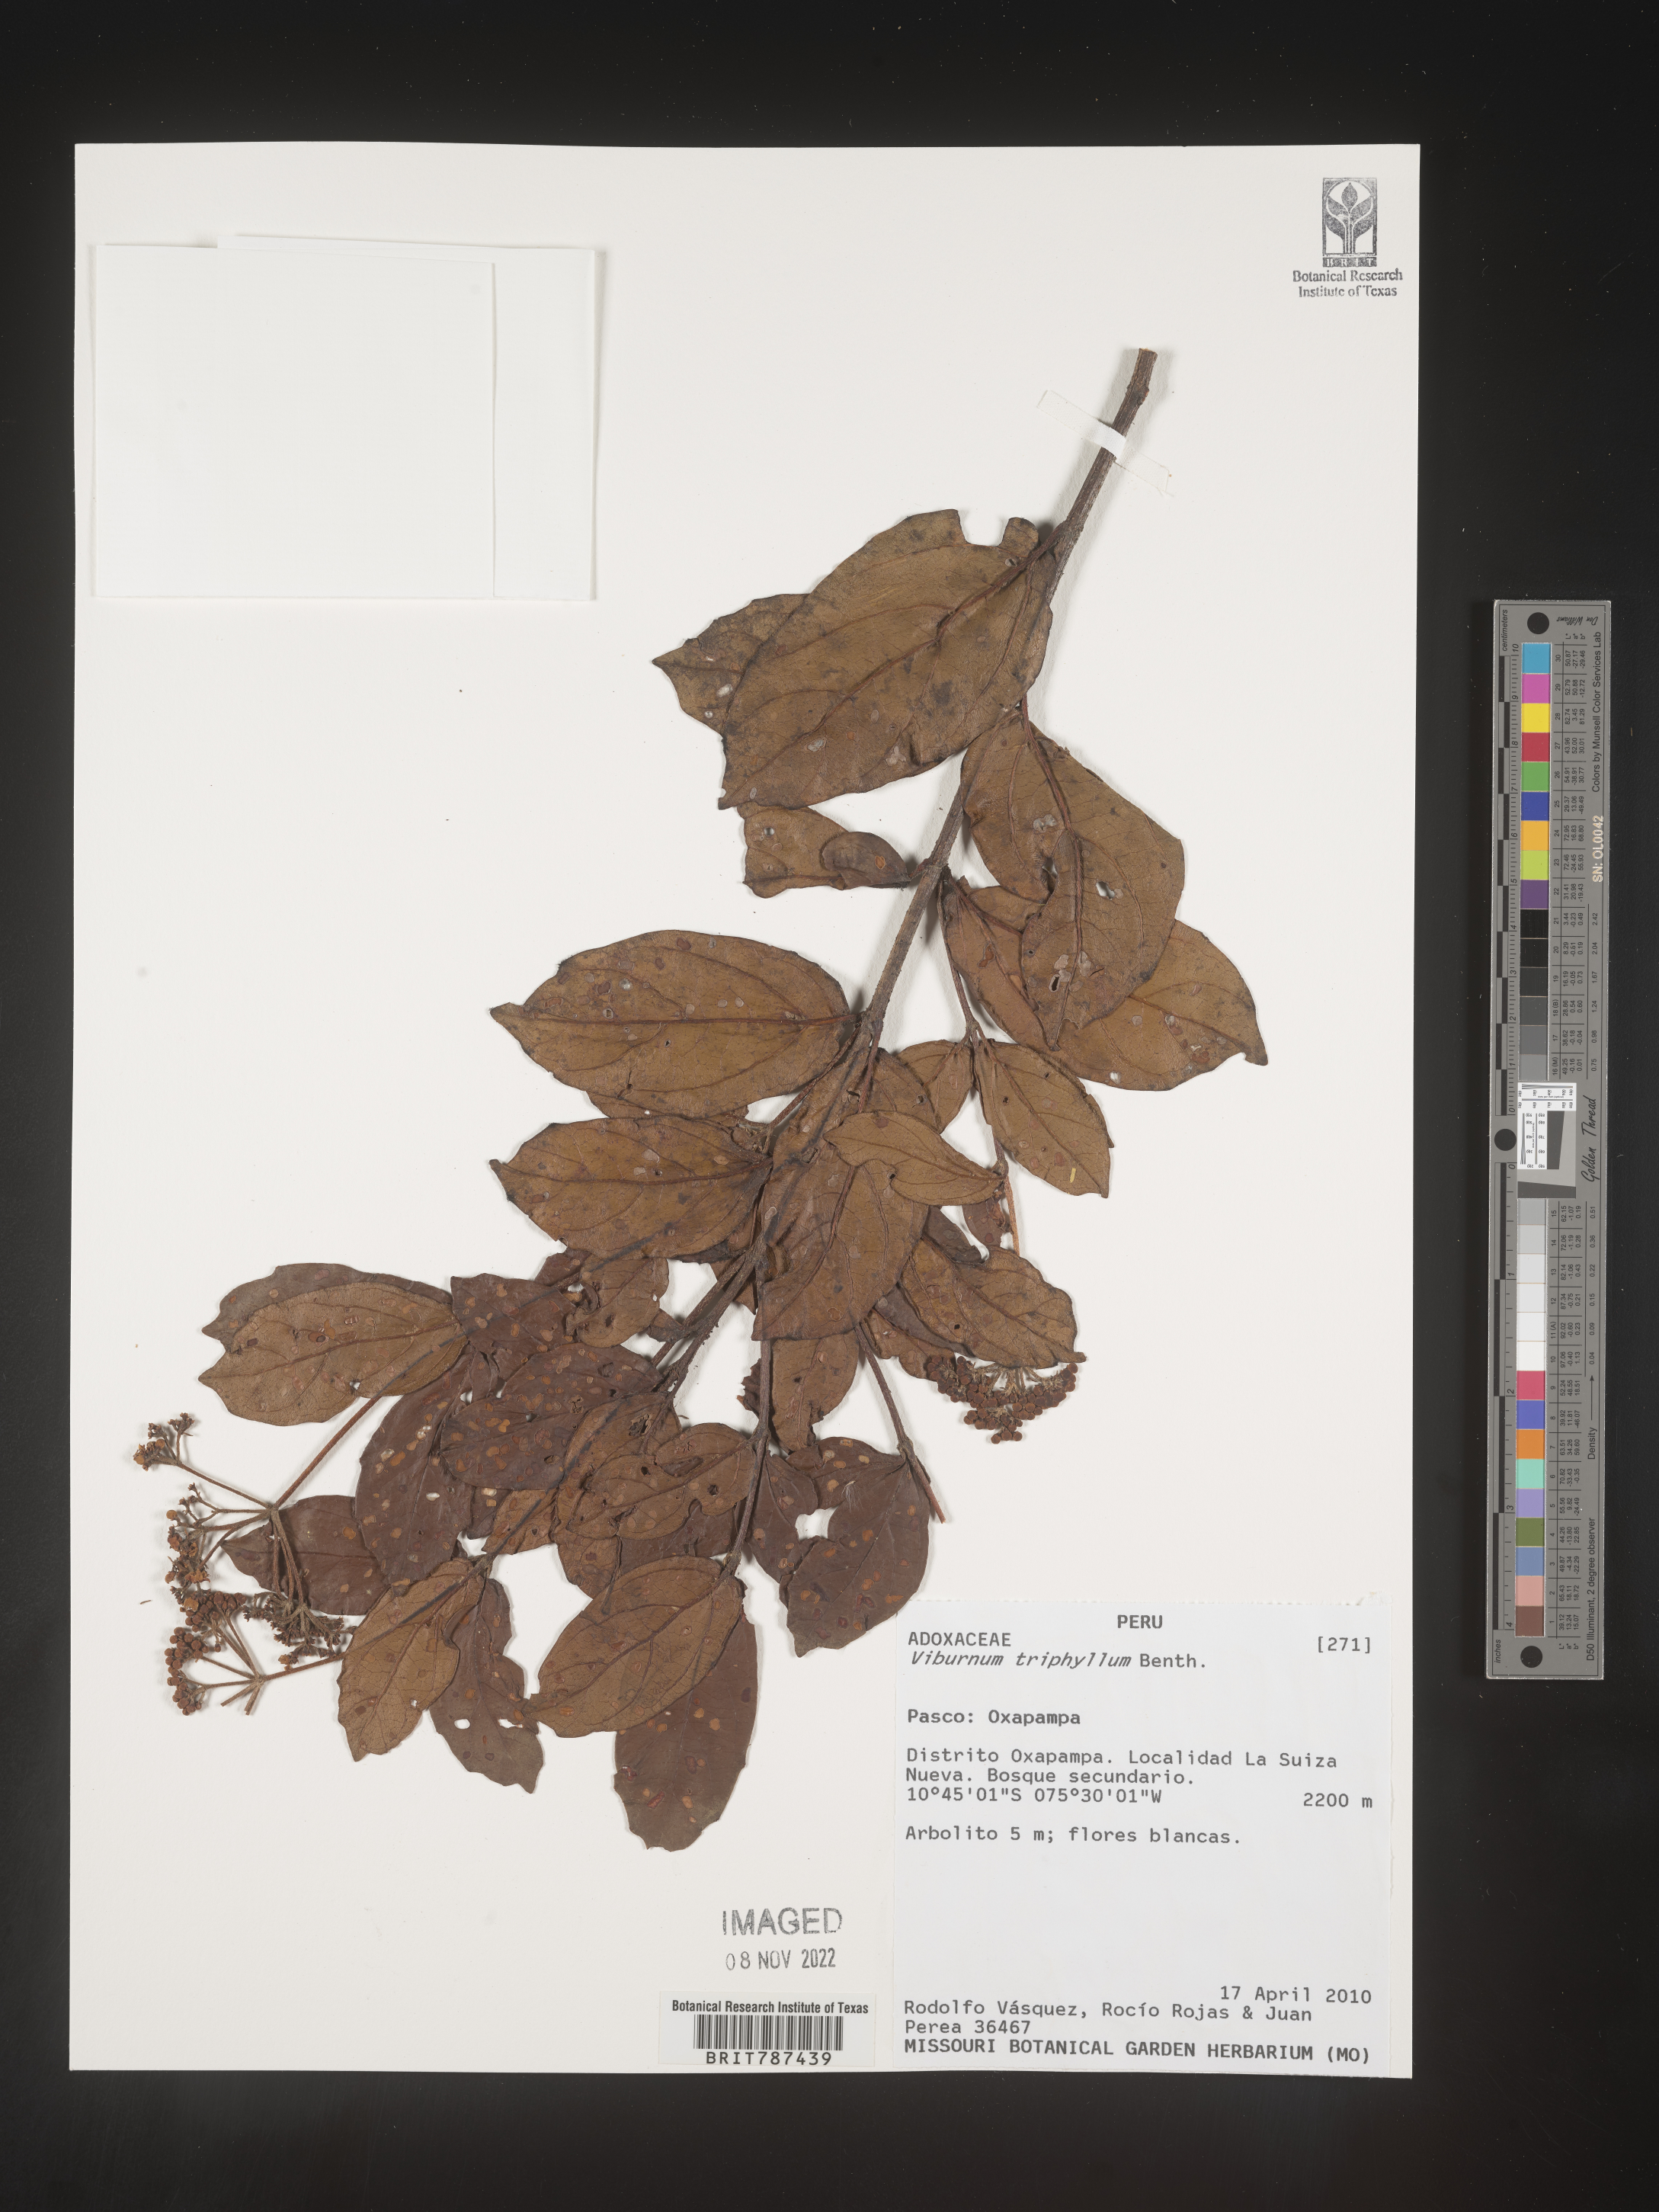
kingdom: Plantae
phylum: Tracheophyta
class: Magnoliopsida
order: Dipsacales
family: Viburnaceae
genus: Viburnum
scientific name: Viburnum
